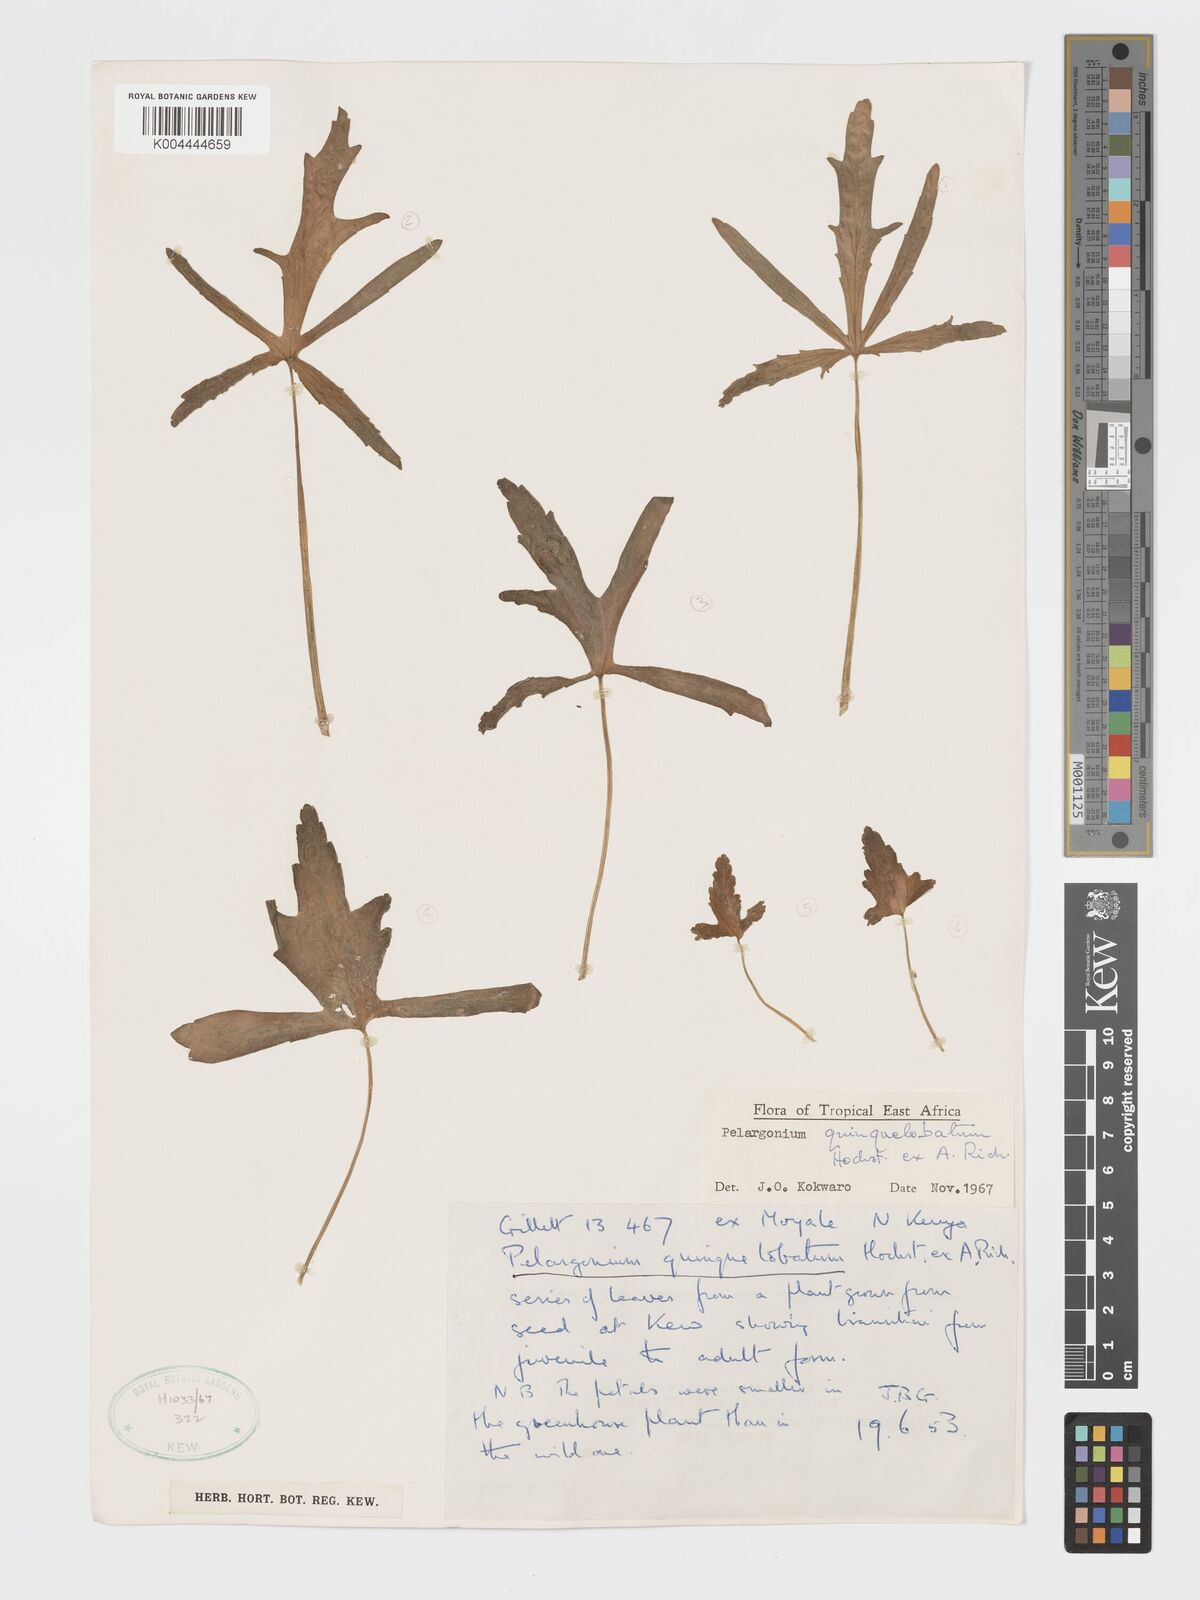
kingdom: Plantae
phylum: Tracheophyta
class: Magnoliopsida
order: Geraniales
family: Geraniaceae
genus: Pelargonium
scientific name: Pelargonium quinquelobatum
